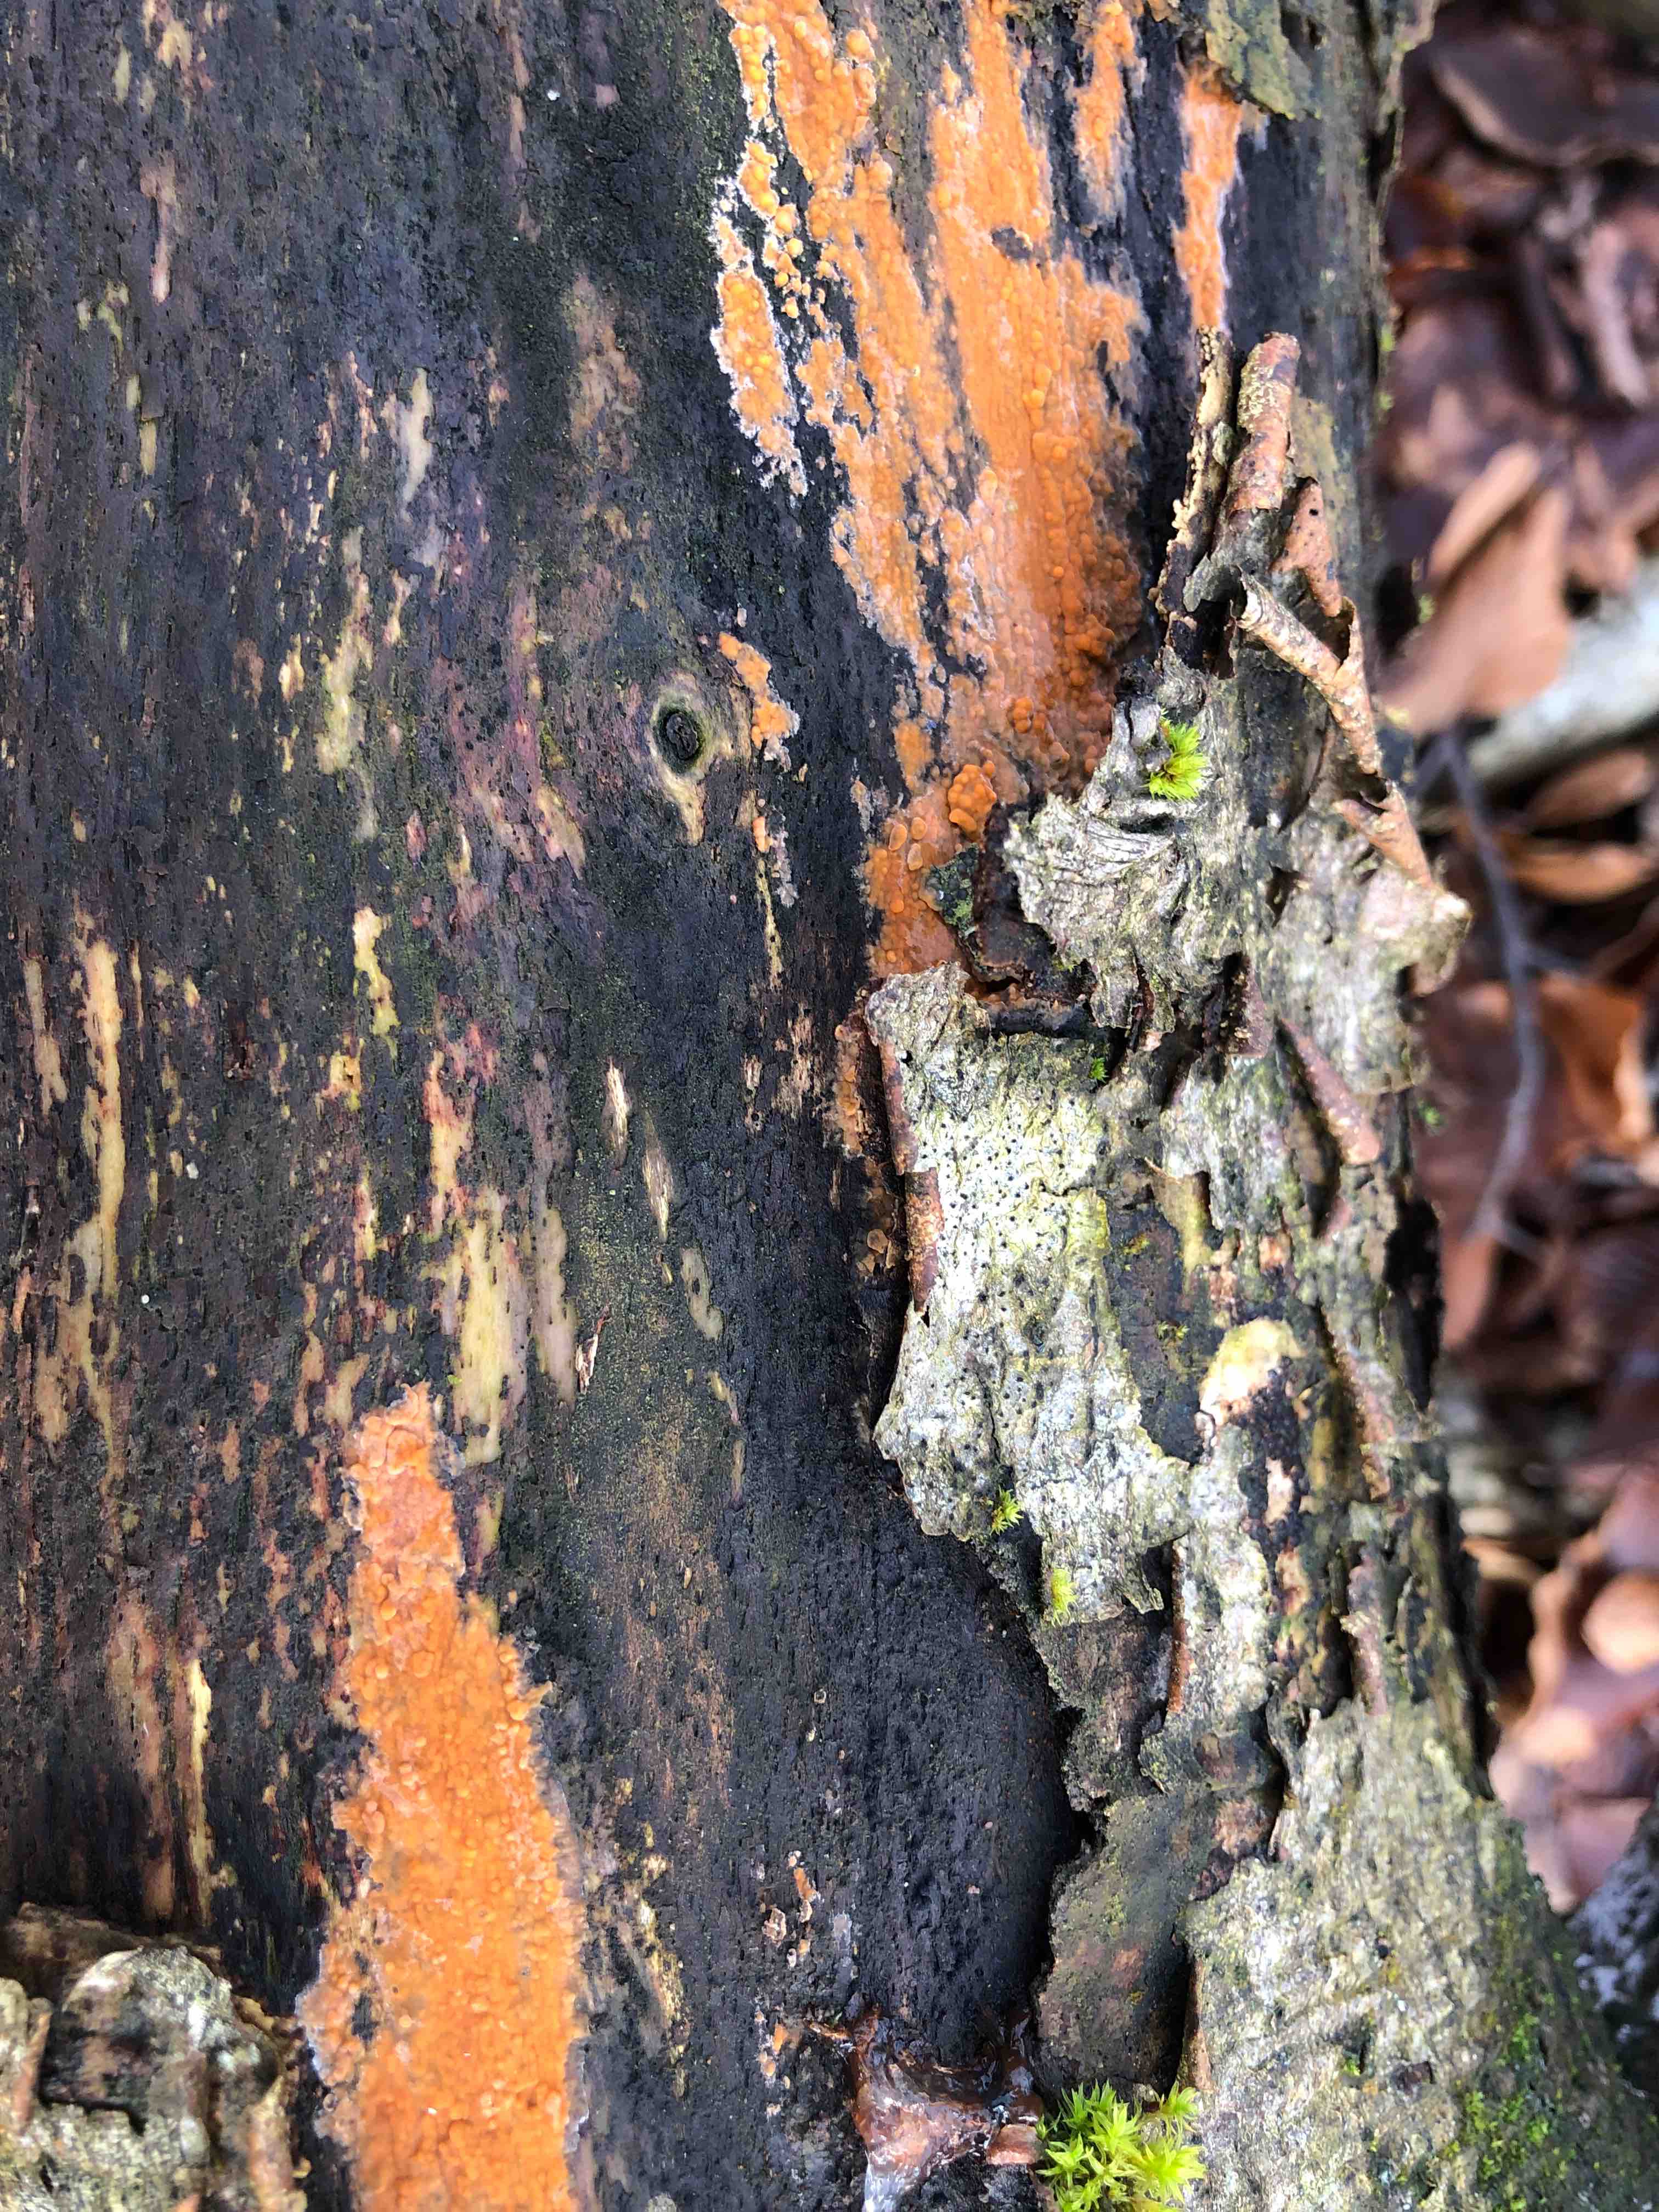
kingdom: Fungi
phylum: Basidiomycota
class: Agaricomycetes
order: Russulales
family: Peniophoraceae
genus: Peniophora
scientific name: Peniophora incarnata
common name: laksefarvet voksskind
